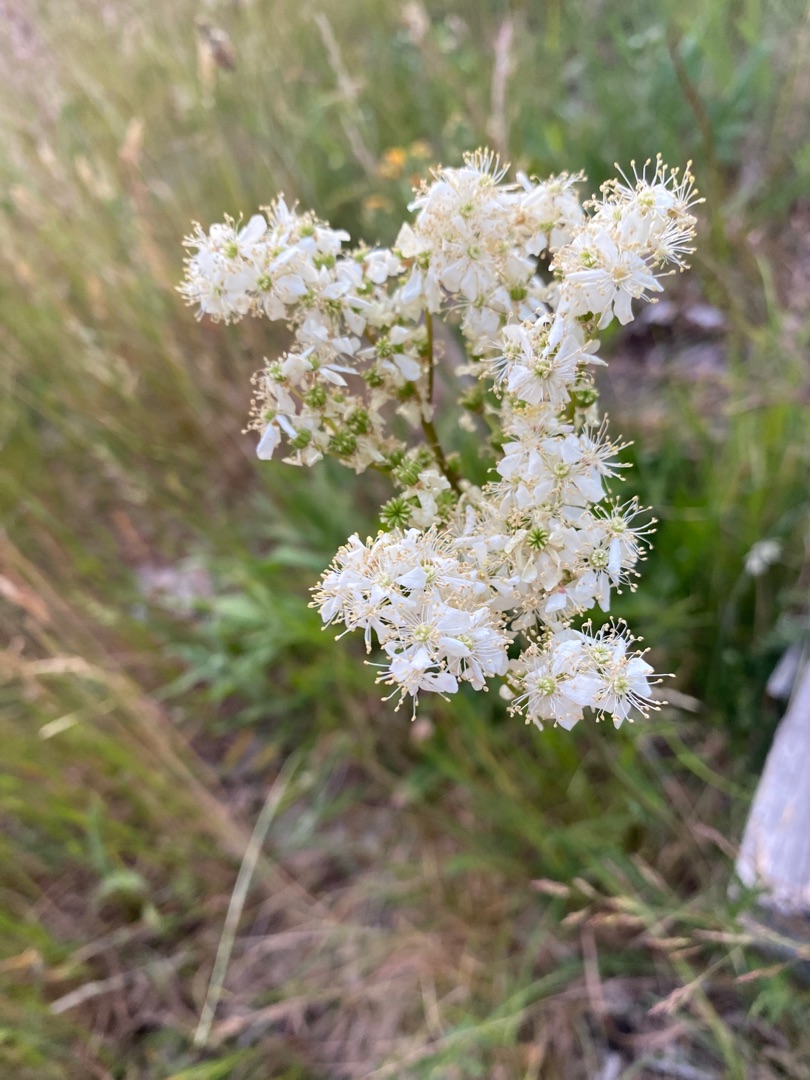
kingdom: Plantae
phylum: Tracheophyta
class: Magnoliopsida
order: Rosales
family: Rosaceae
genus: Filipendula
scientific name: Filipendula vulgaris
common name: Knoldet mjødurt
